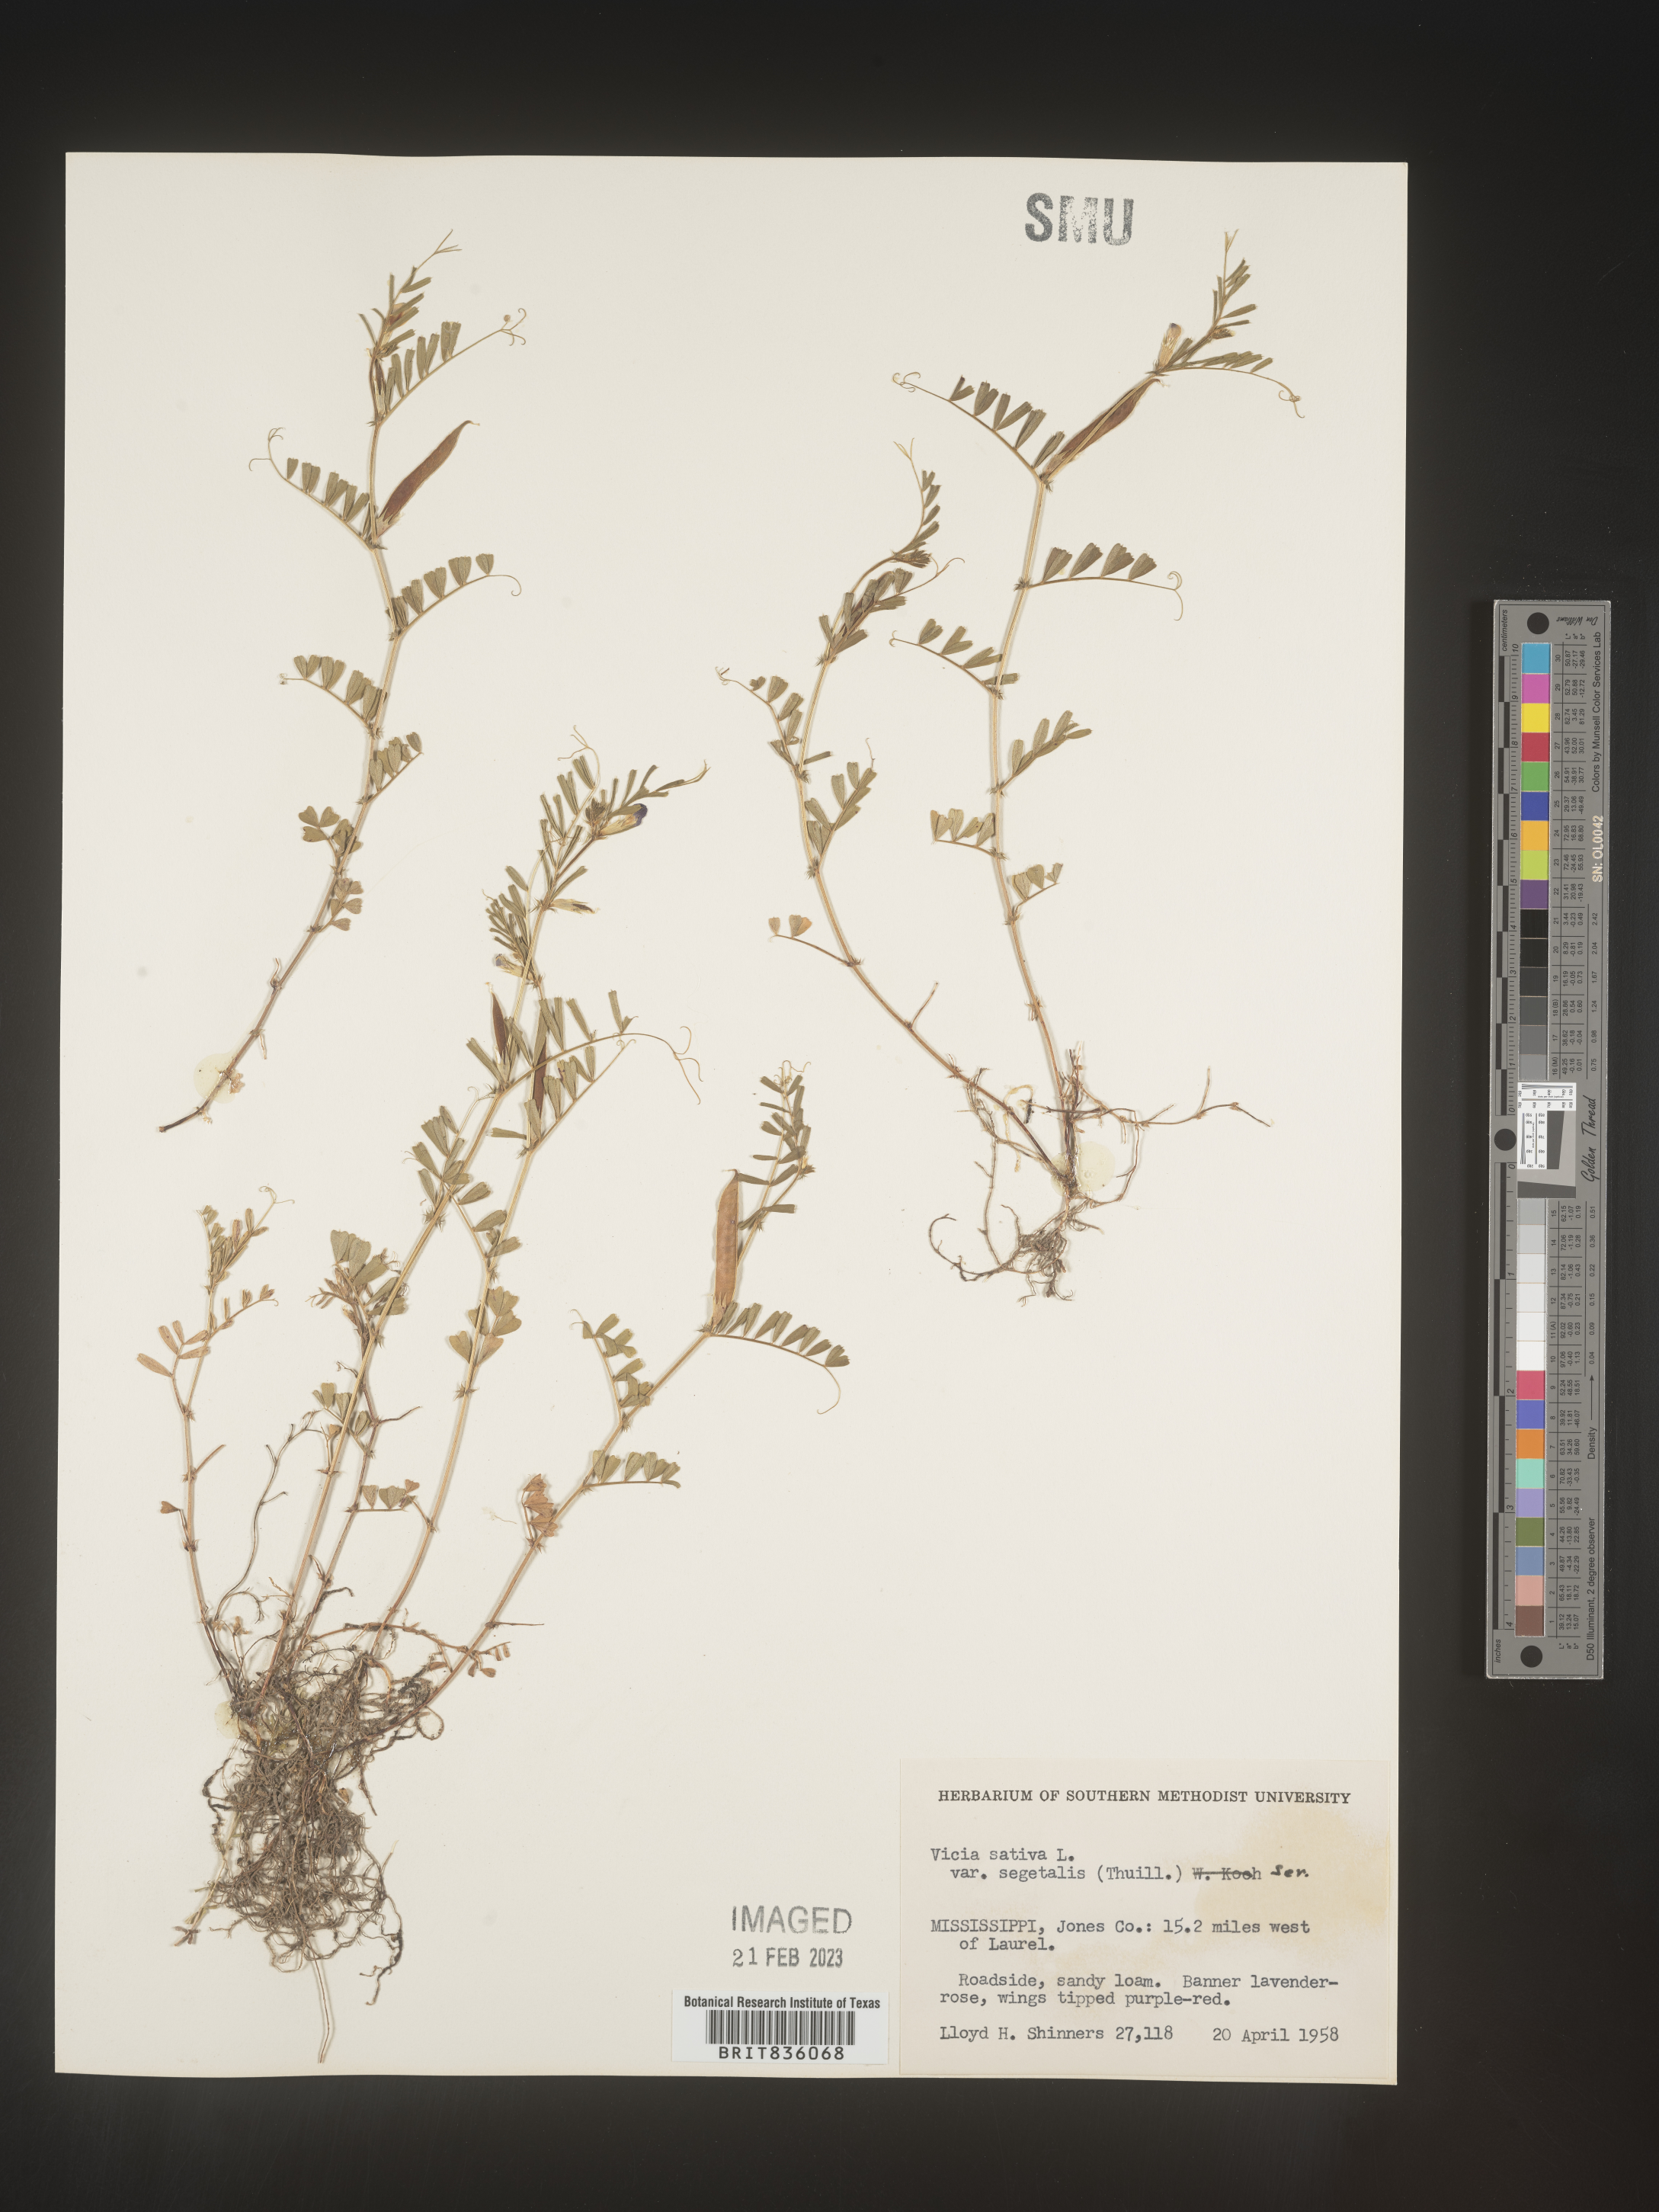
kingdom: Plantae
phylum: Tracheophyta
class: Magnoliopsida
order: Fabales
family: Fabaceae
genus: Vicia
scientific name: Vicia sativa
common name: Garden vetch
